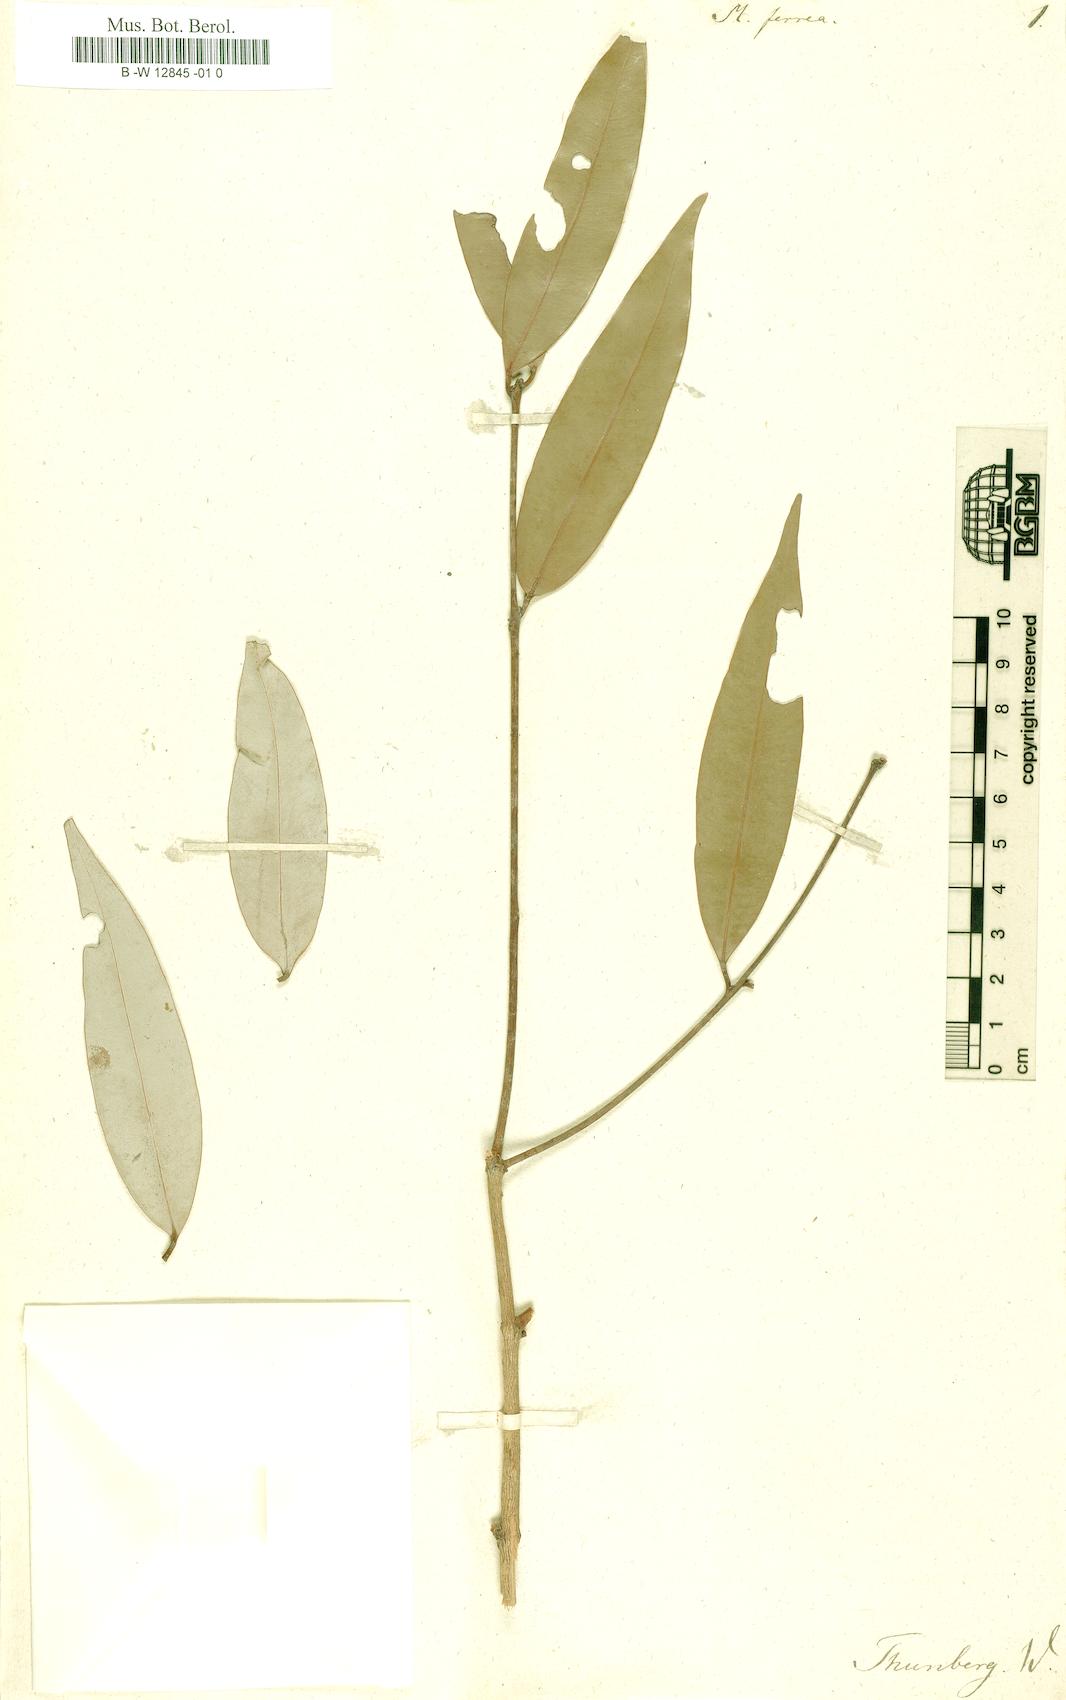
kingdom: Plantae
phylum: Tracheophyta
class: Magnoliopsida
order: Malpighiales
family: Calophyllaceae
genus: Mesua
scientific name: Mesua ferrea
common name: Mesua
